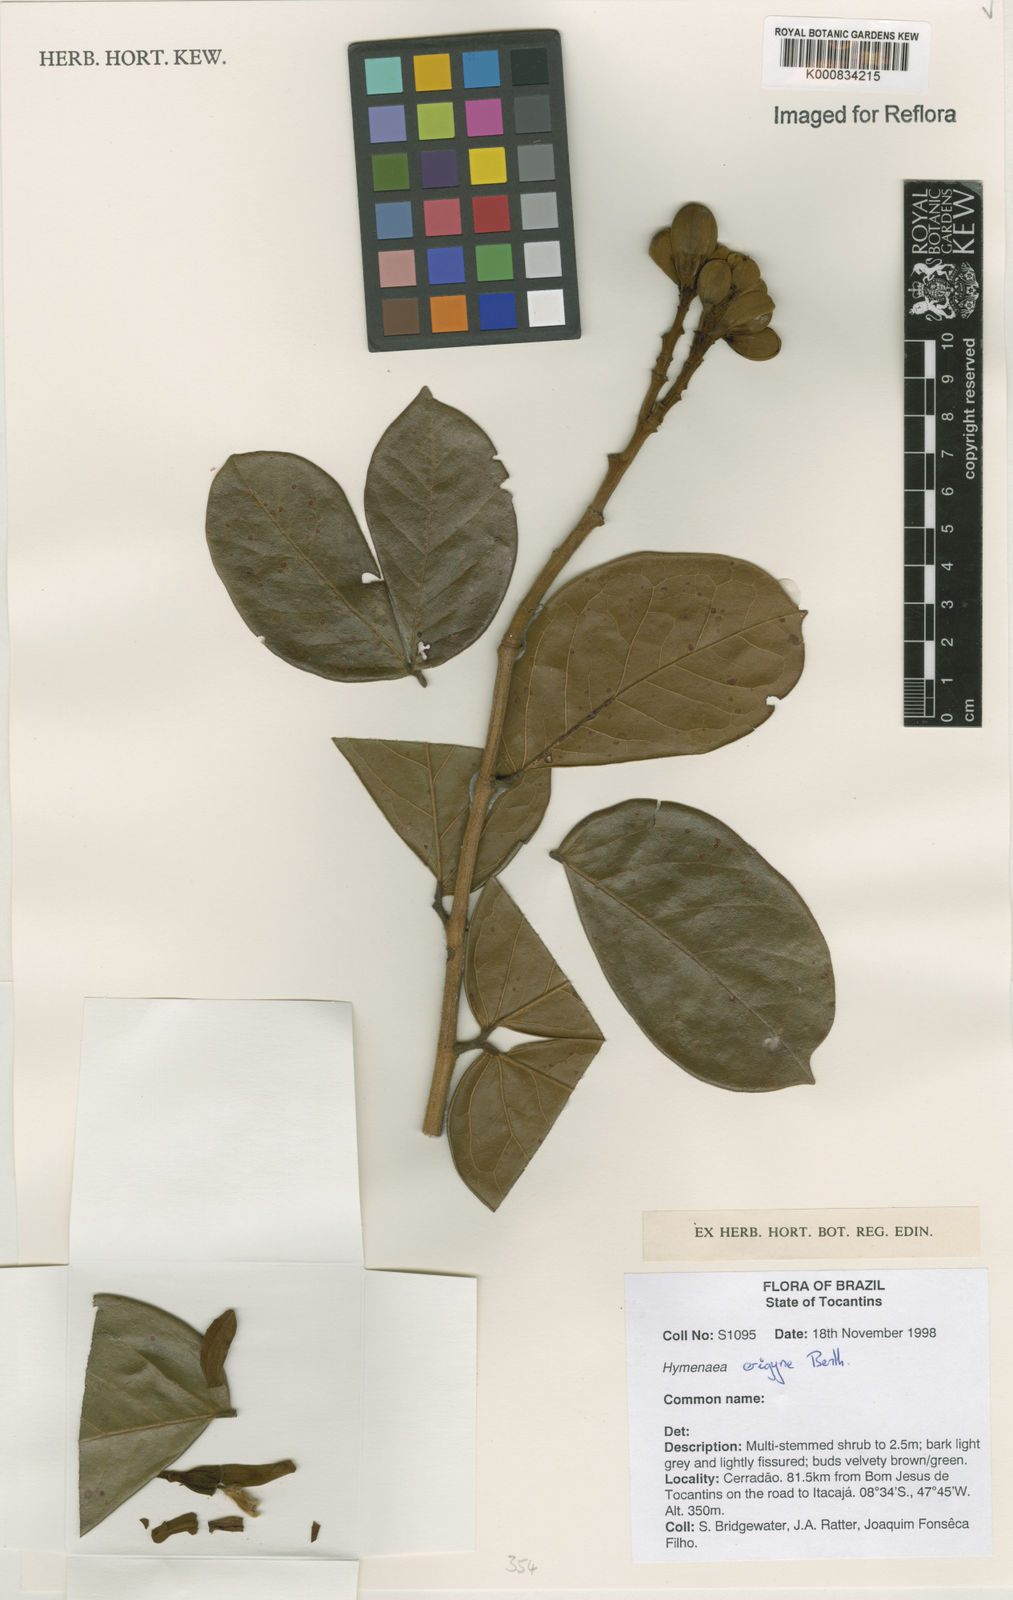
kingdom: Plantae
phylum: Tracheophyta
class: Magnoliopsida
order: Fabales
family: Fabaceae
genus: Hymenaea
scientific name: Hymenaea eriogyne
